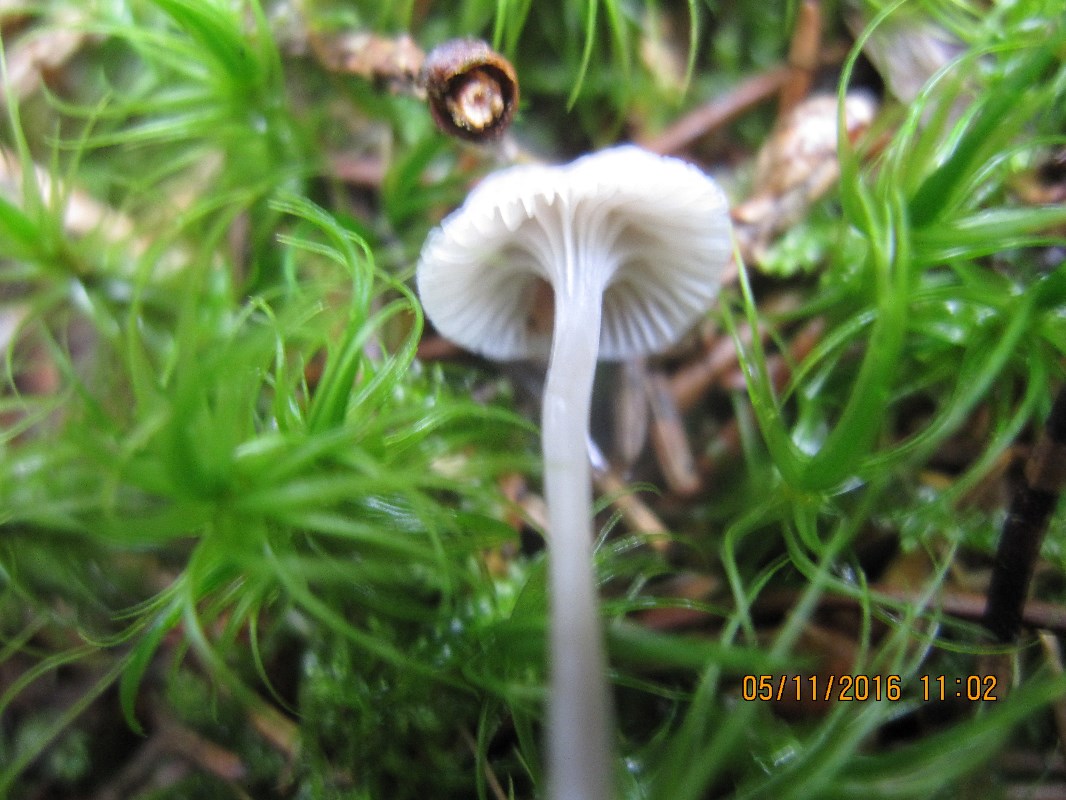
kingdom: Fungi
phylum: Basidiomycota
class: Agaricomycetes
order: Agaricales
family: Mycenaceae
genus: Mycena
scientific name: Mycena cinerella
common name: mel-huesvamp
